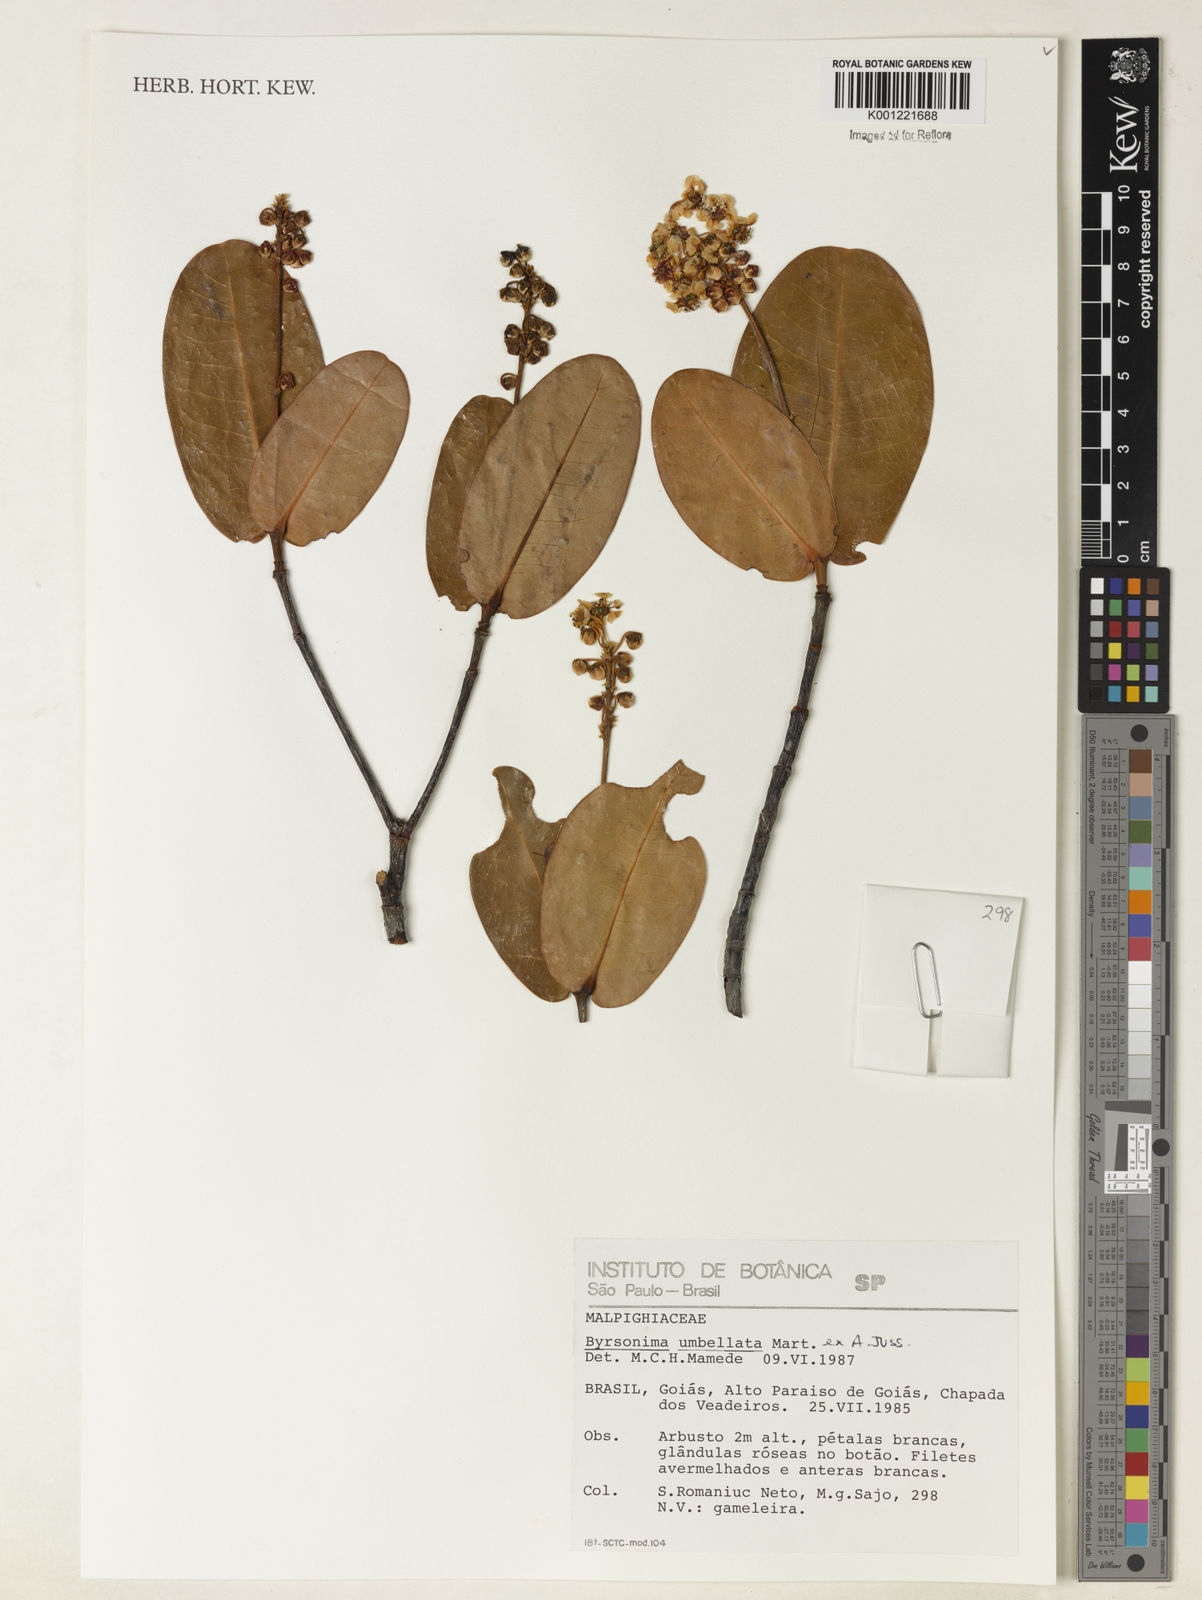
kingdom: Plantae
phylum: Tracheophyta
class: Magnoliopsida
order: Malpighiales
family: Malpighiaceae
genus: Byrsonima
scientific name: Byrsonima umbellata
